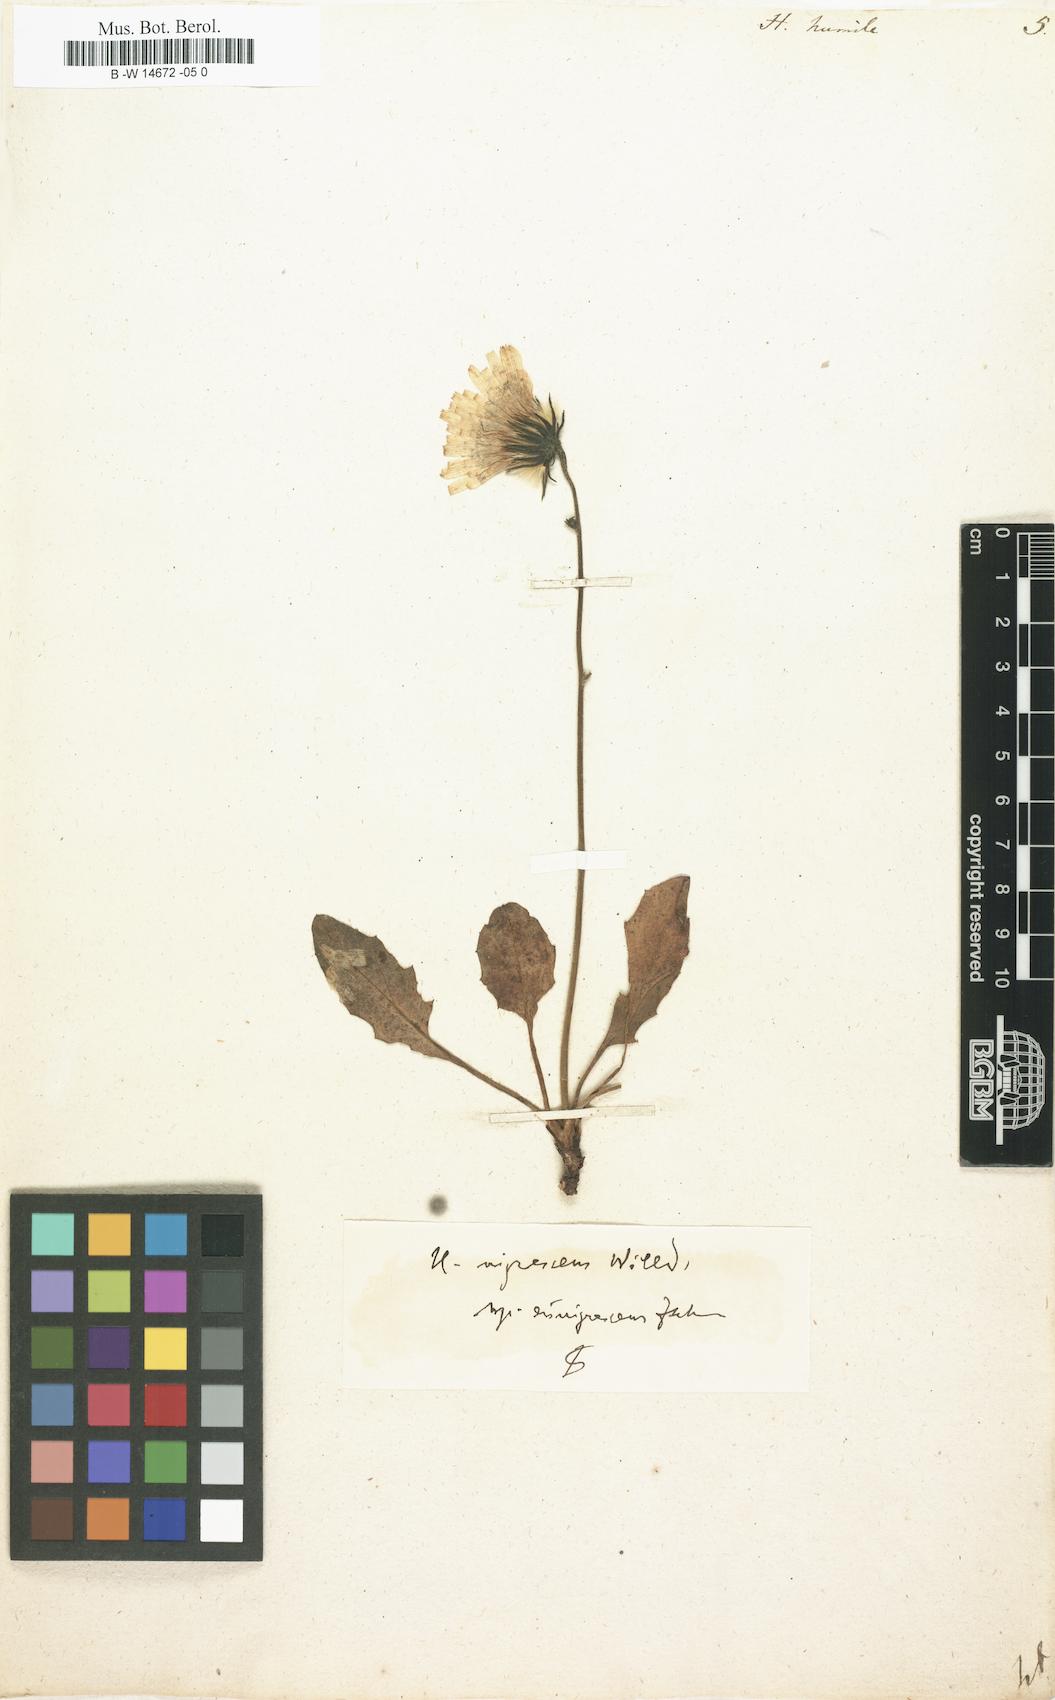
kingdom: Plantae
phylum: Tracheophyta
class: Magnoliopsida
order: Asterales
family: Asteraceae
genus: Hieracium
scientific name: Hieracium humile
